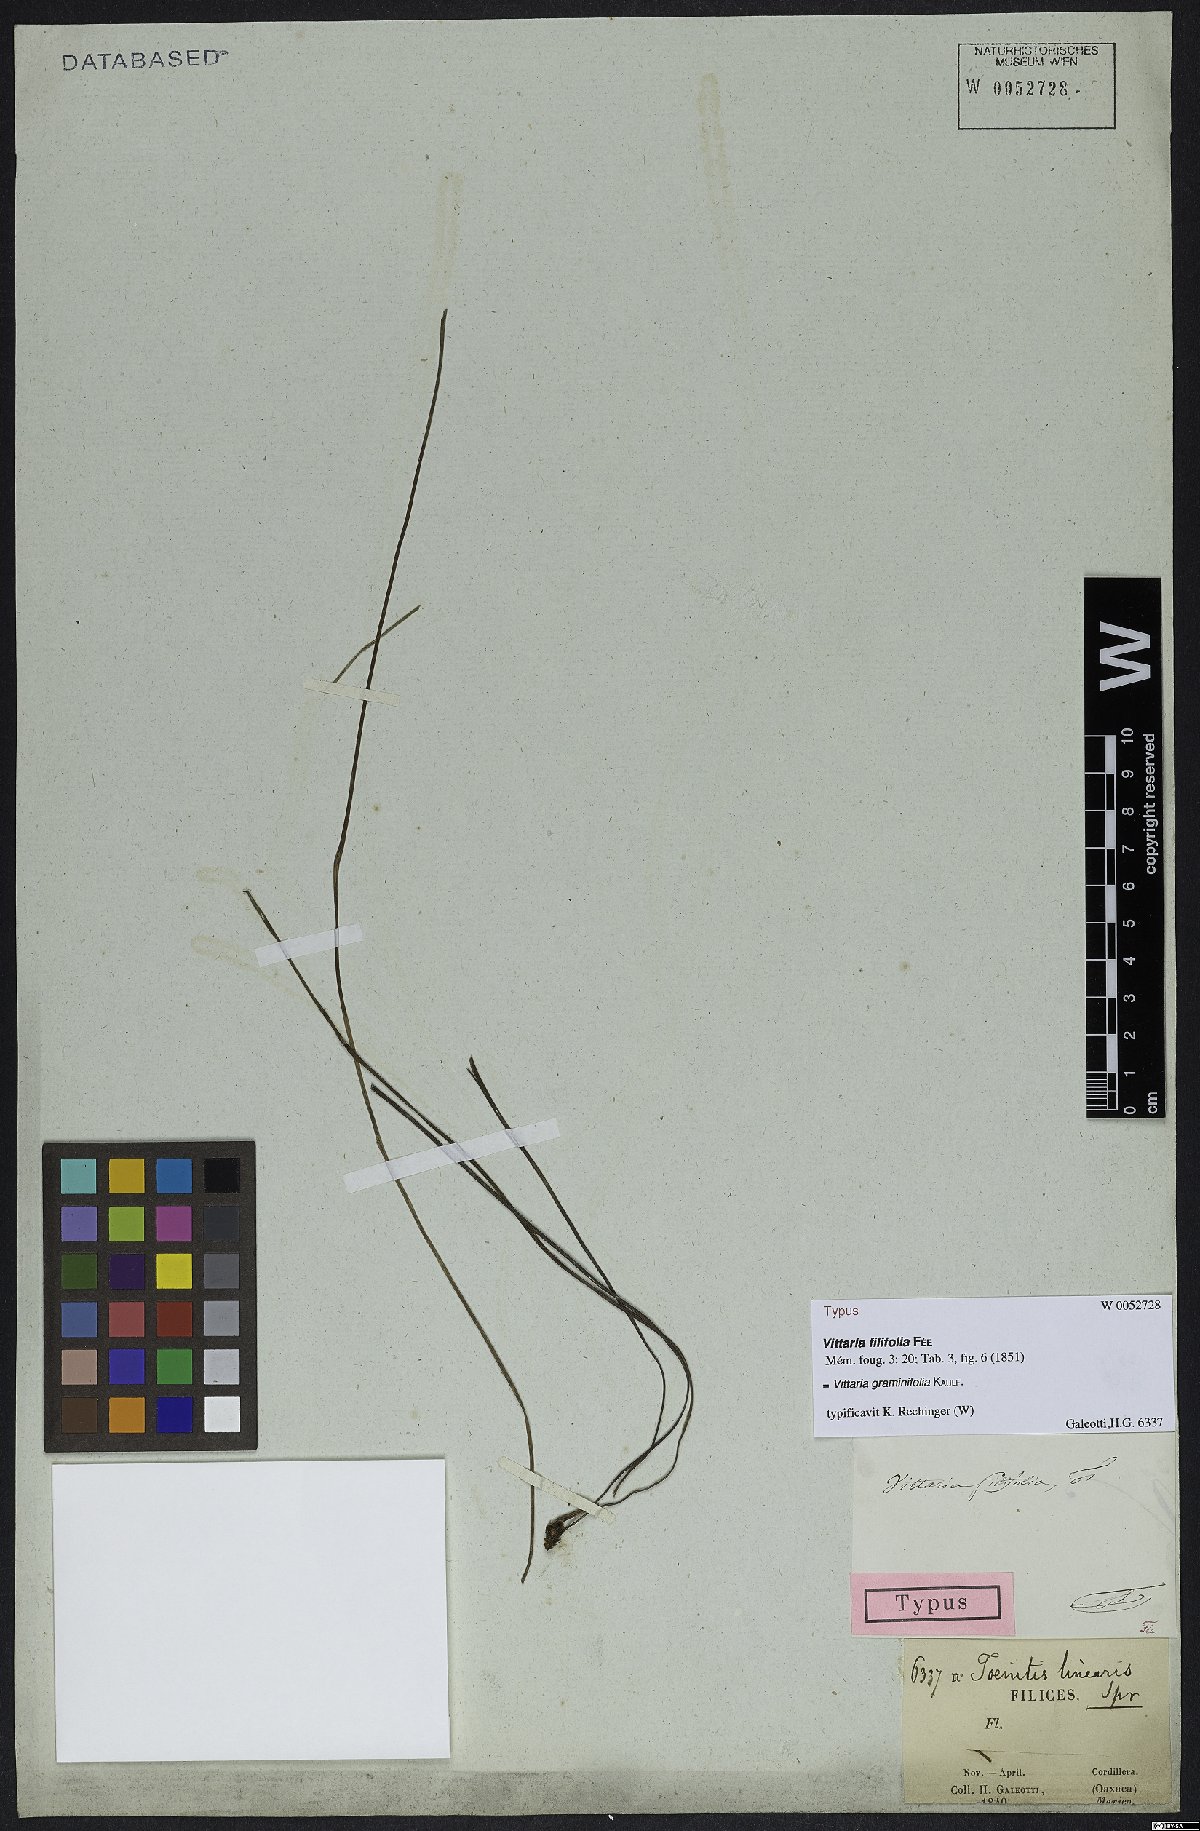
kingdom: Plantae
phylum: Tracheophyta
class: Polypodiopsida
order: Polypodiales
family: Pteridaceae
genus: Vittaria
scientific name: Vittaria graminifolia
